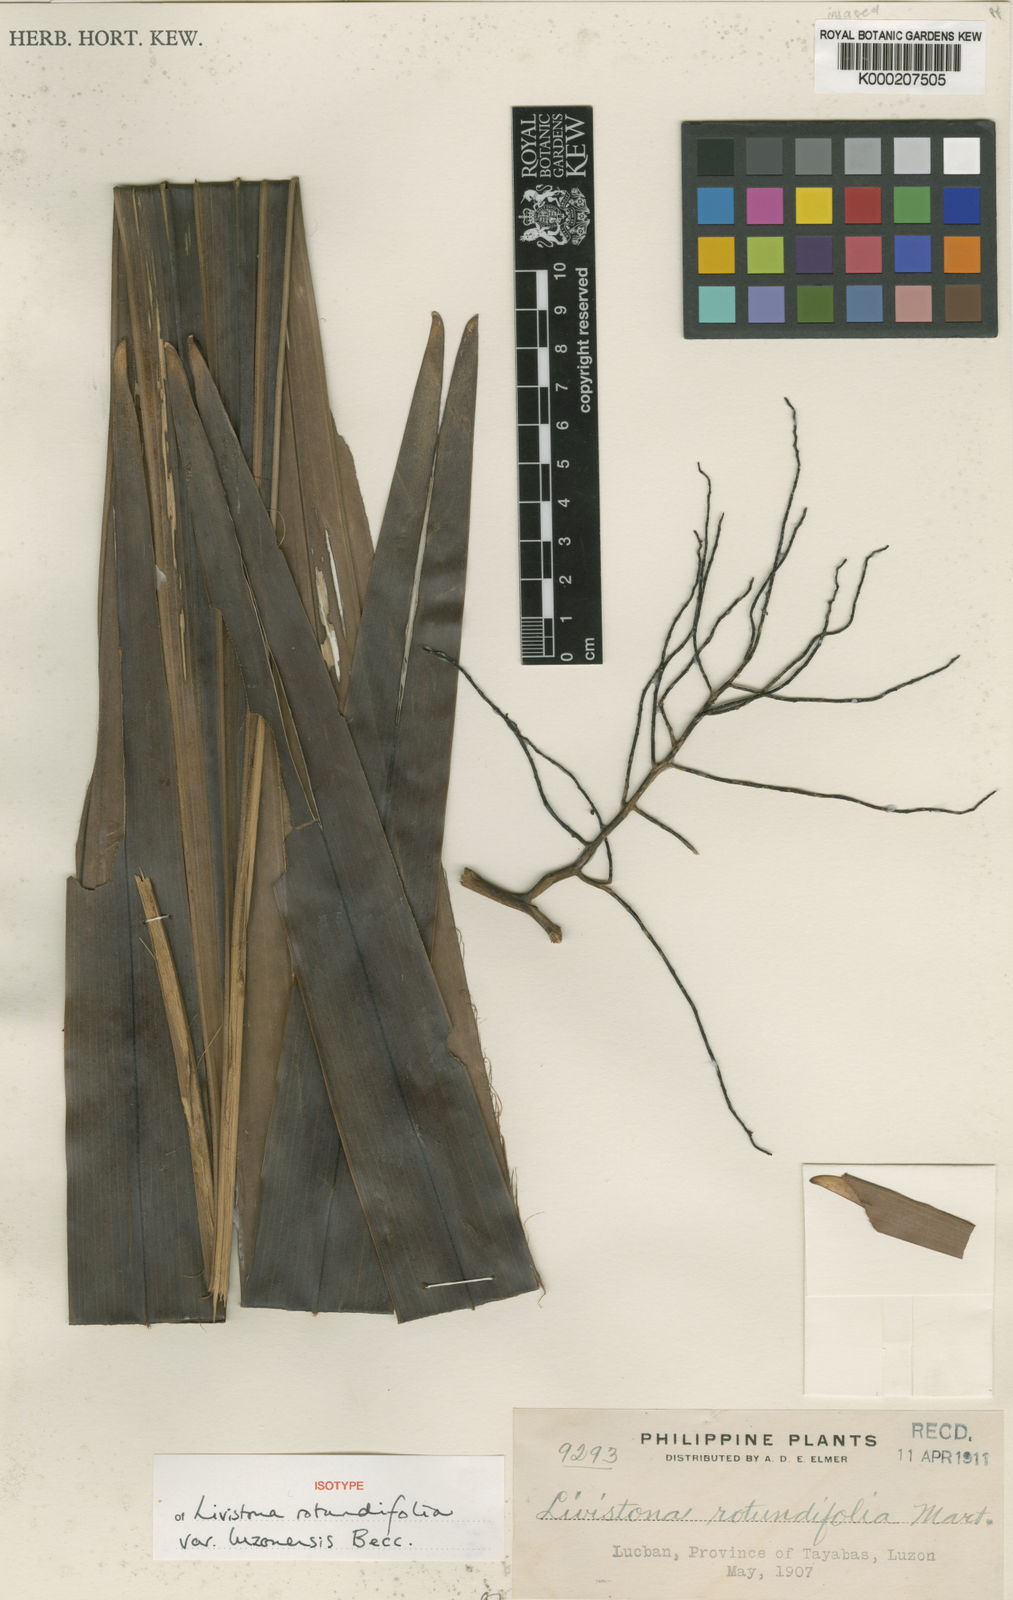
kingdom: Plantae
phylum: Tracheophyta
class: Liliopsida
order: Arecales
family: Arecaceae
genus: Saribus
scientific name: Saribus rotundifolius
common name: Palm
